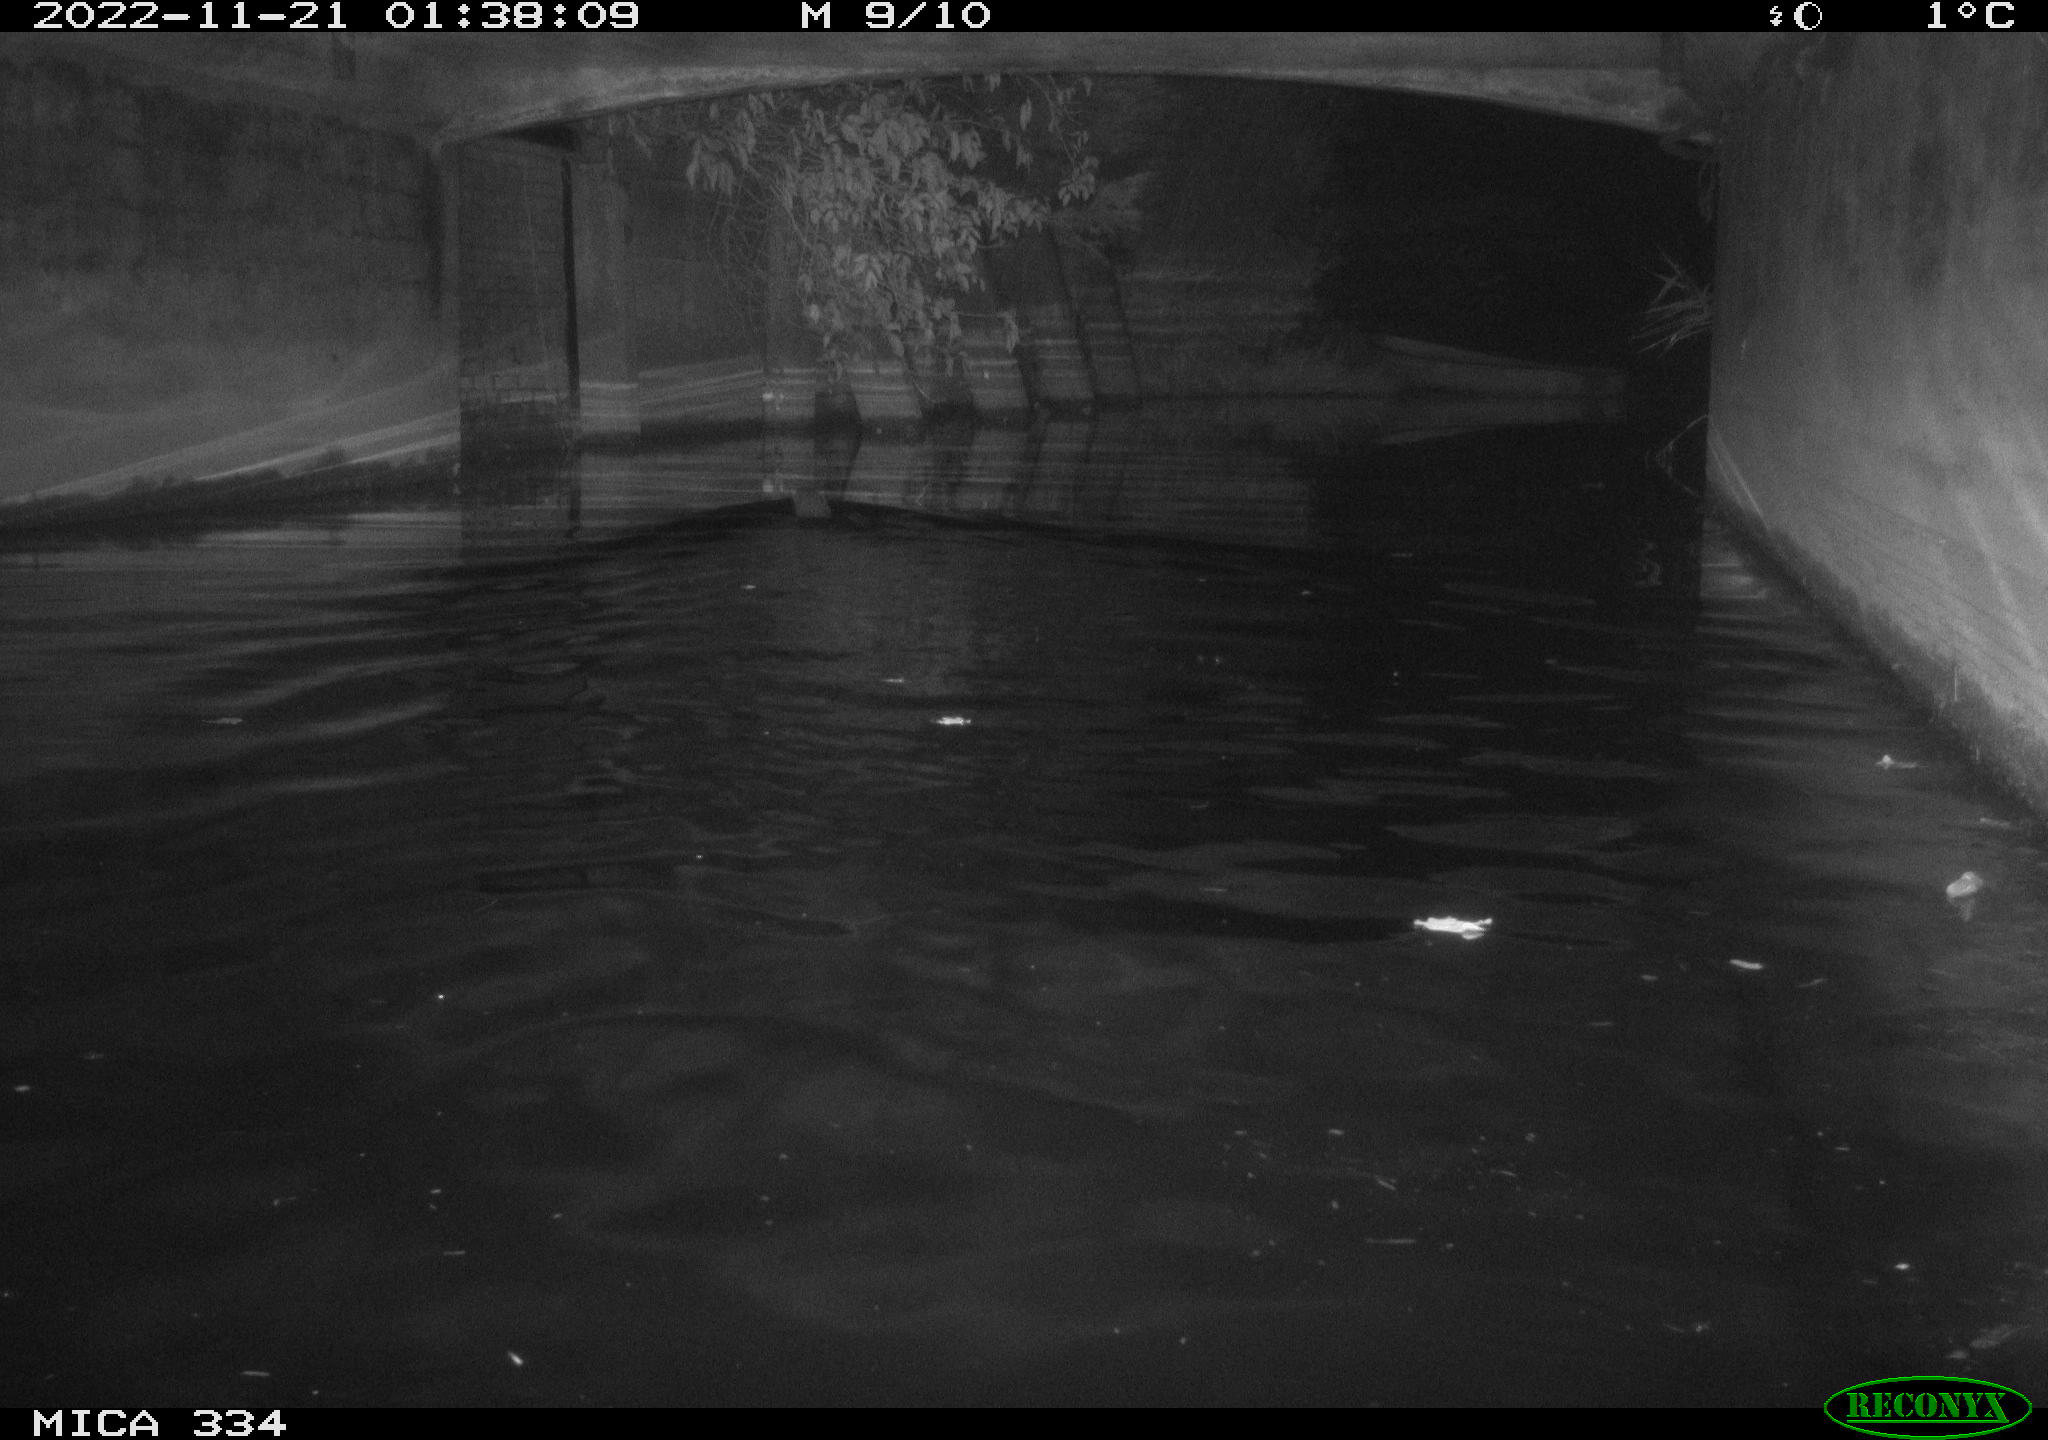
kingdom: Animalia
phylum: Chordata
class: Mammalia
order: Carnivora
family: Mustelidae
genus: Lutra
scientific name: Lutra lutra
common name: European otter
